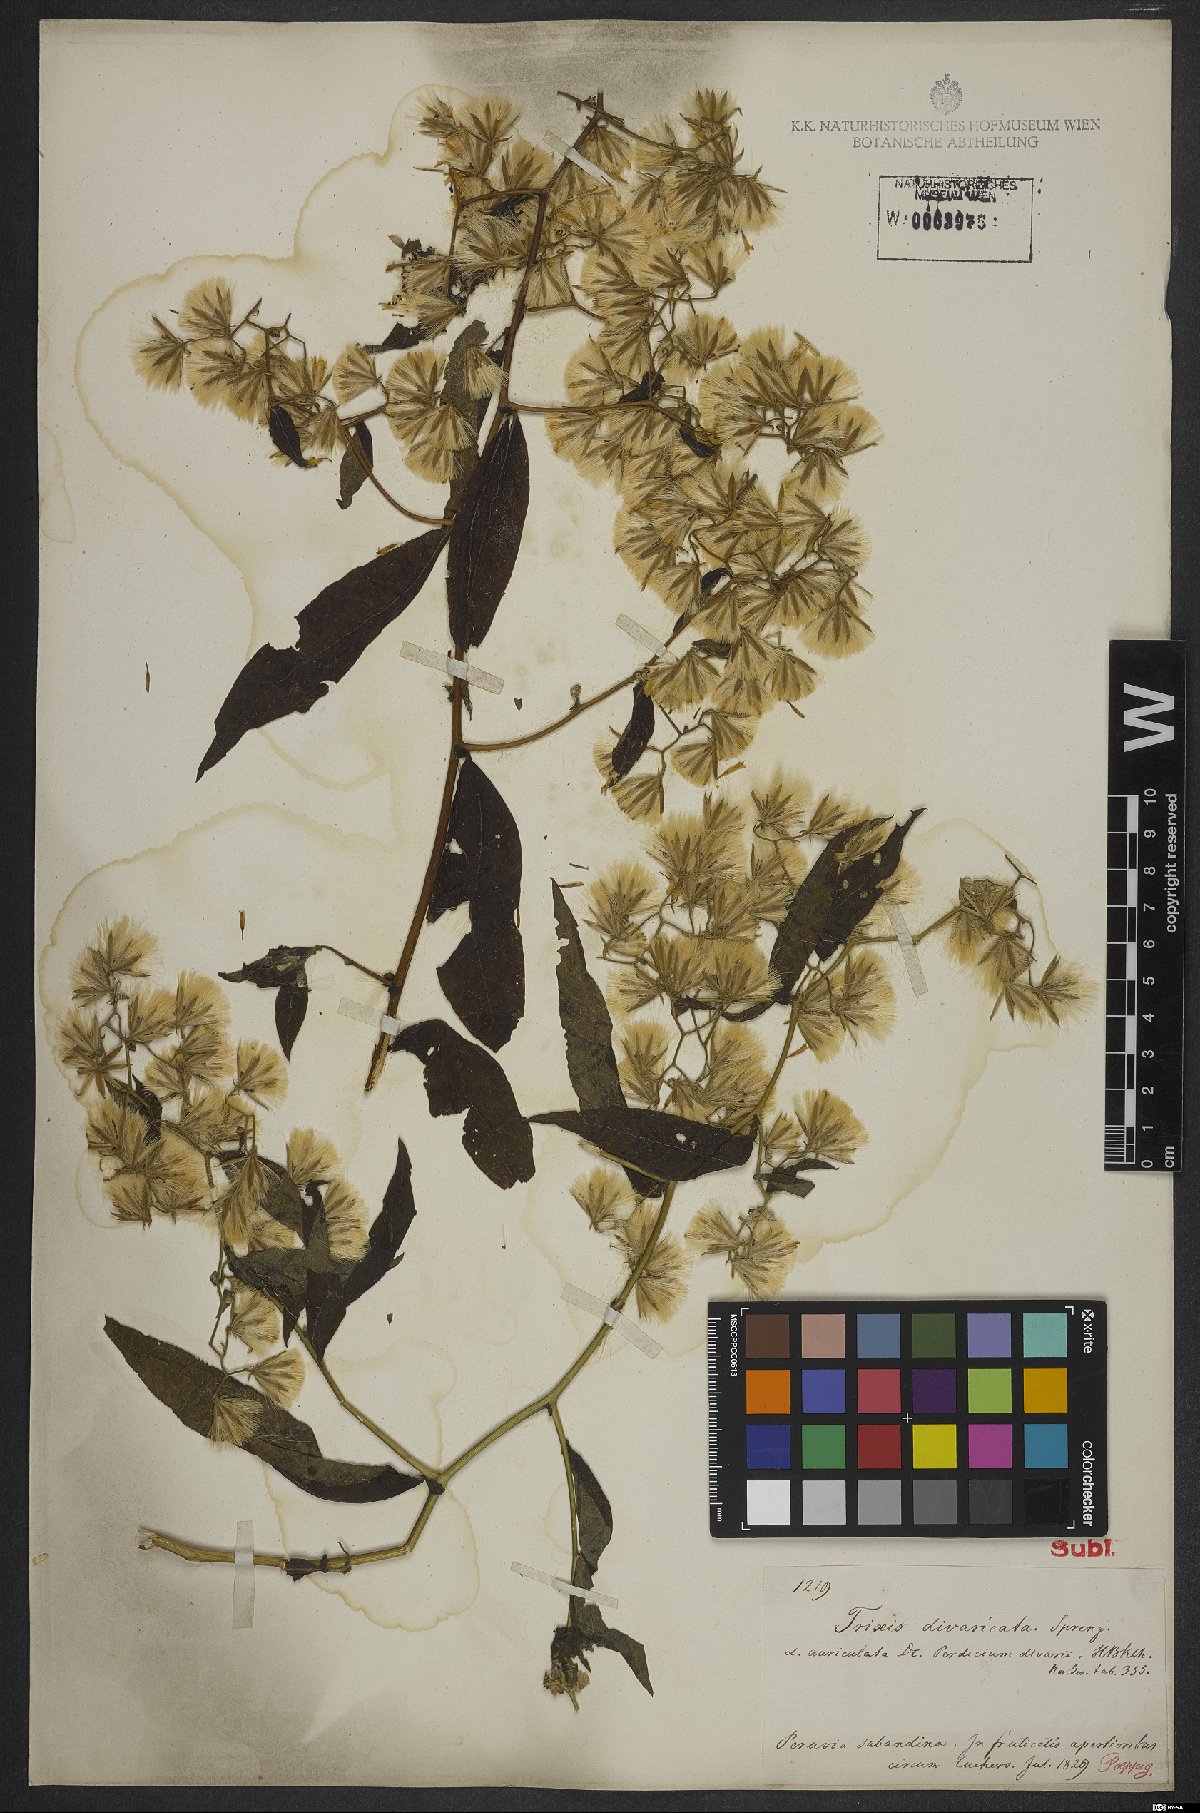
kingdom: Plantae
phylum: Tracheophyta
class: Magnoliopsida
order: Asterales
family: Asteraceae
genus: Trixis
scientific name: Trixis divaricata
